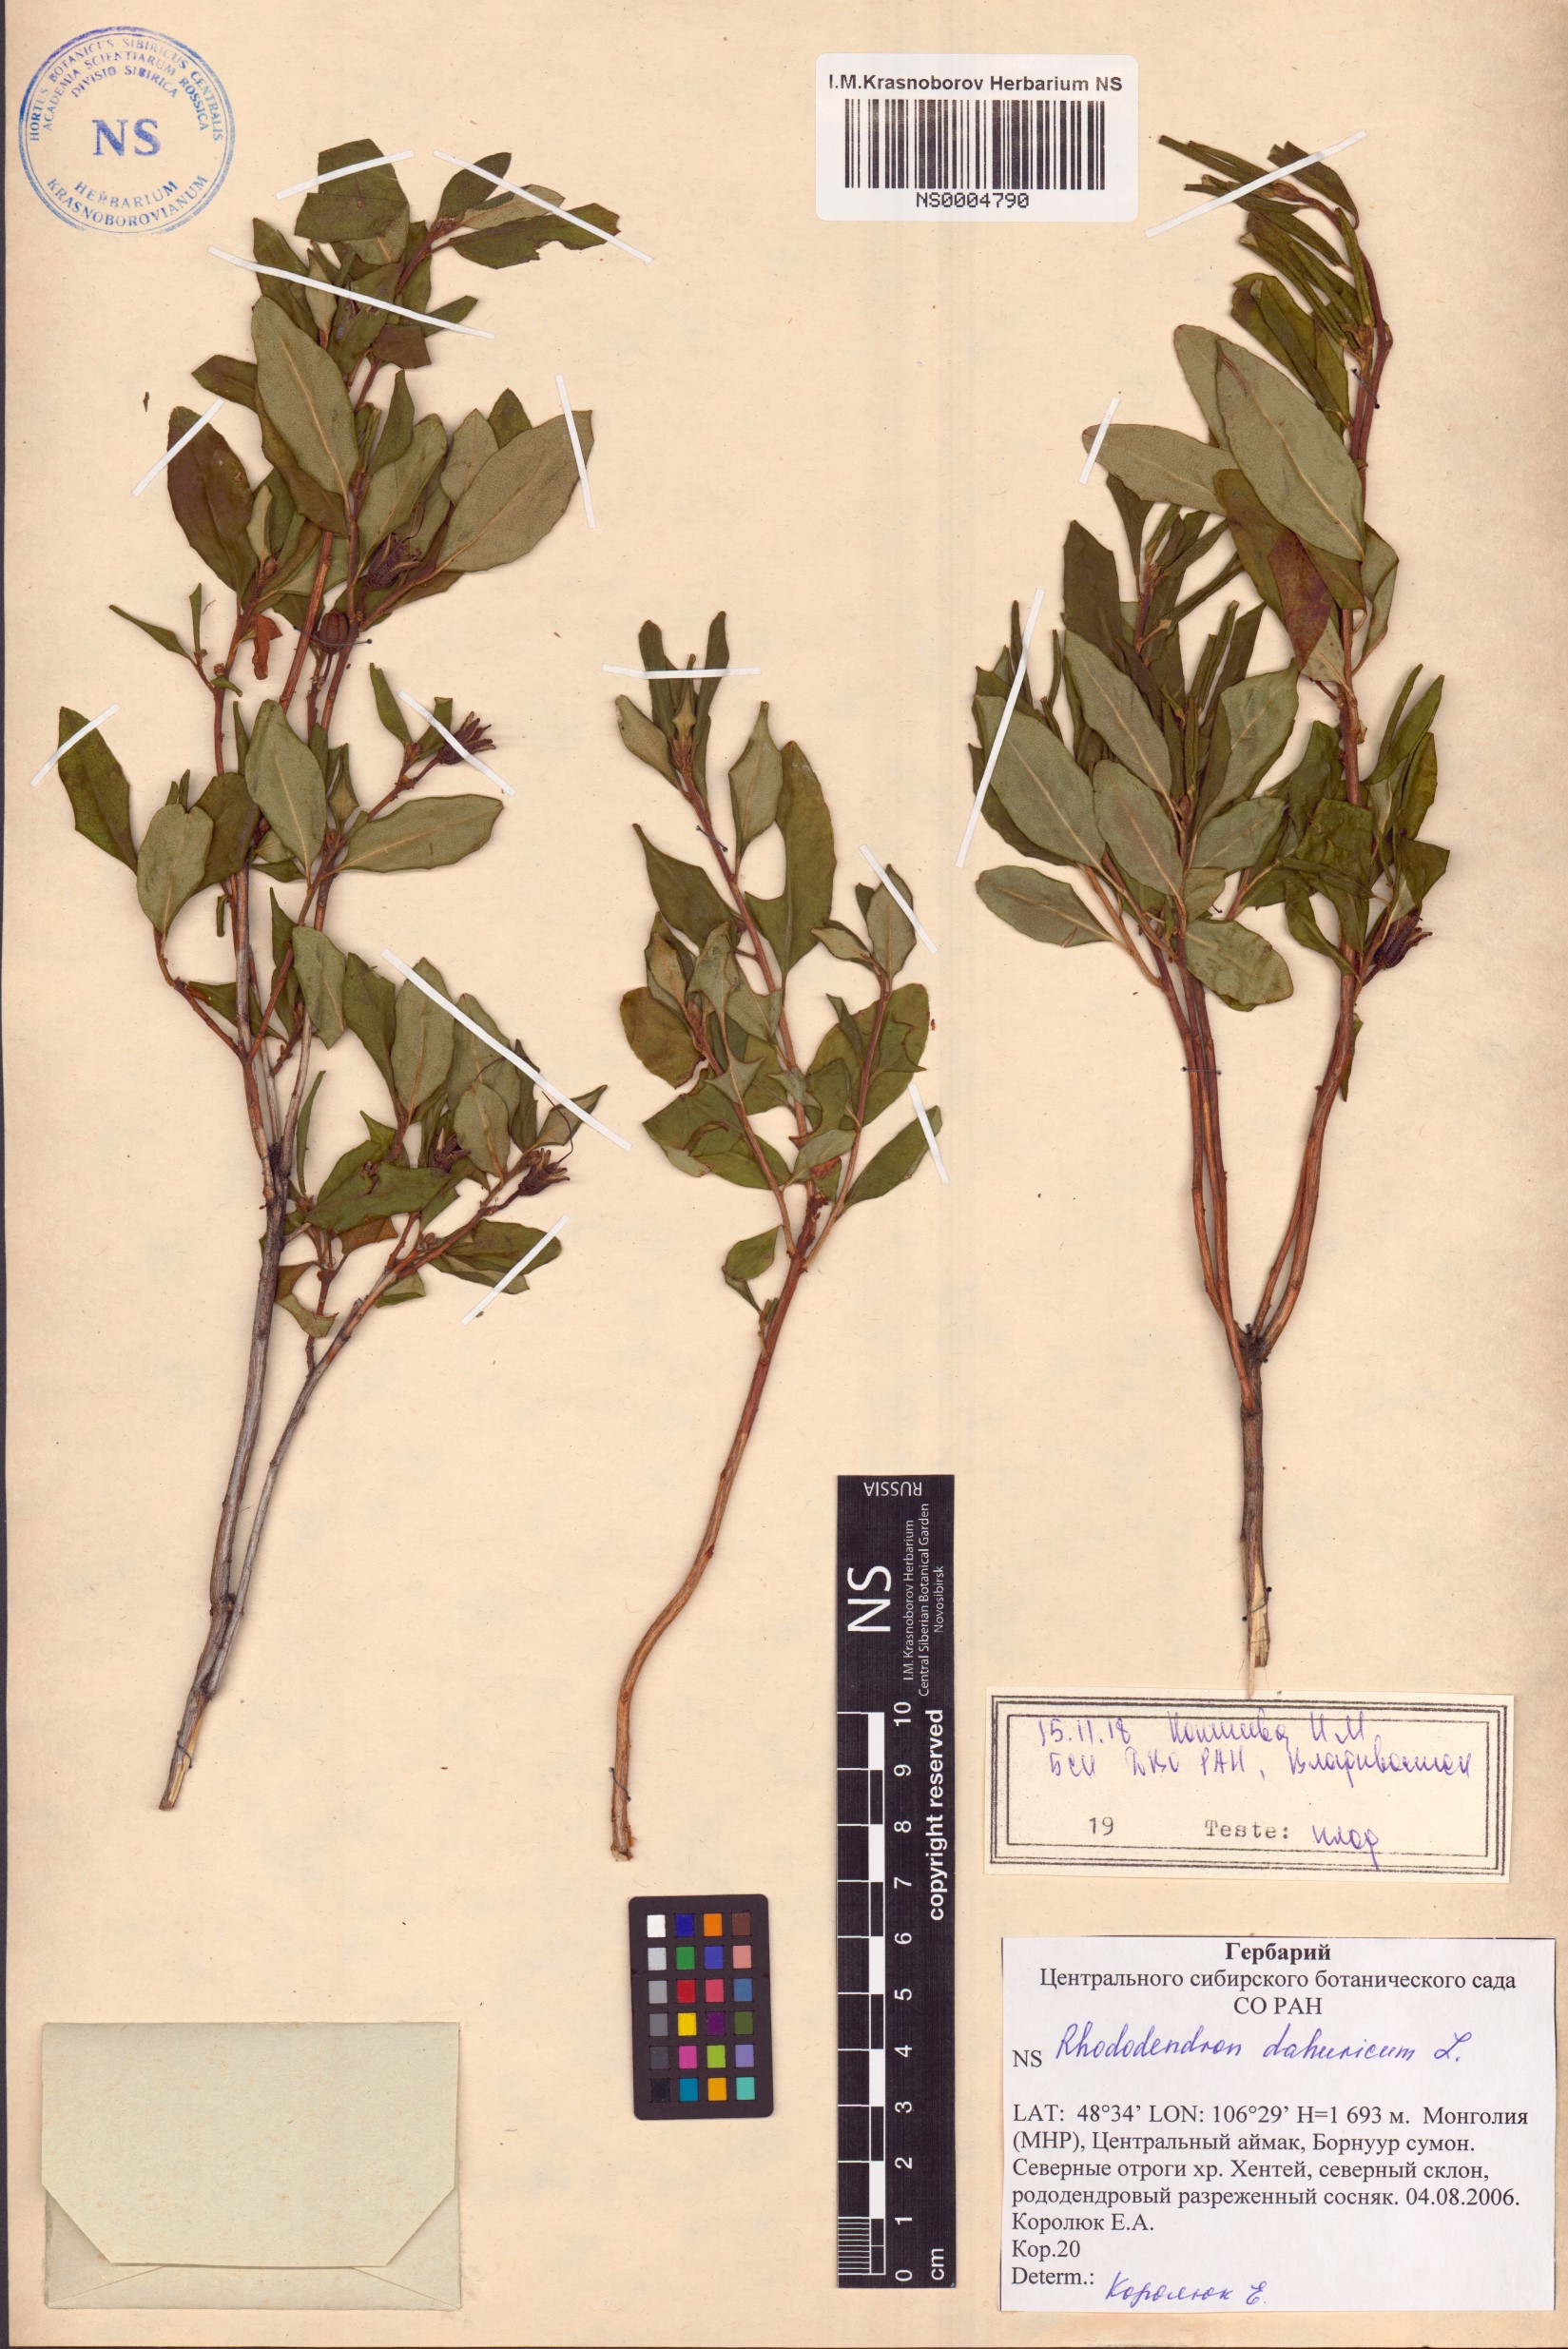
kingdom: Plantae
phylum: Tracheophyta
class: Magnoliopsida
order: Ericales
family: Ericaceae
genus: Rhododendron
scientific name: Rhododendron dauricum
